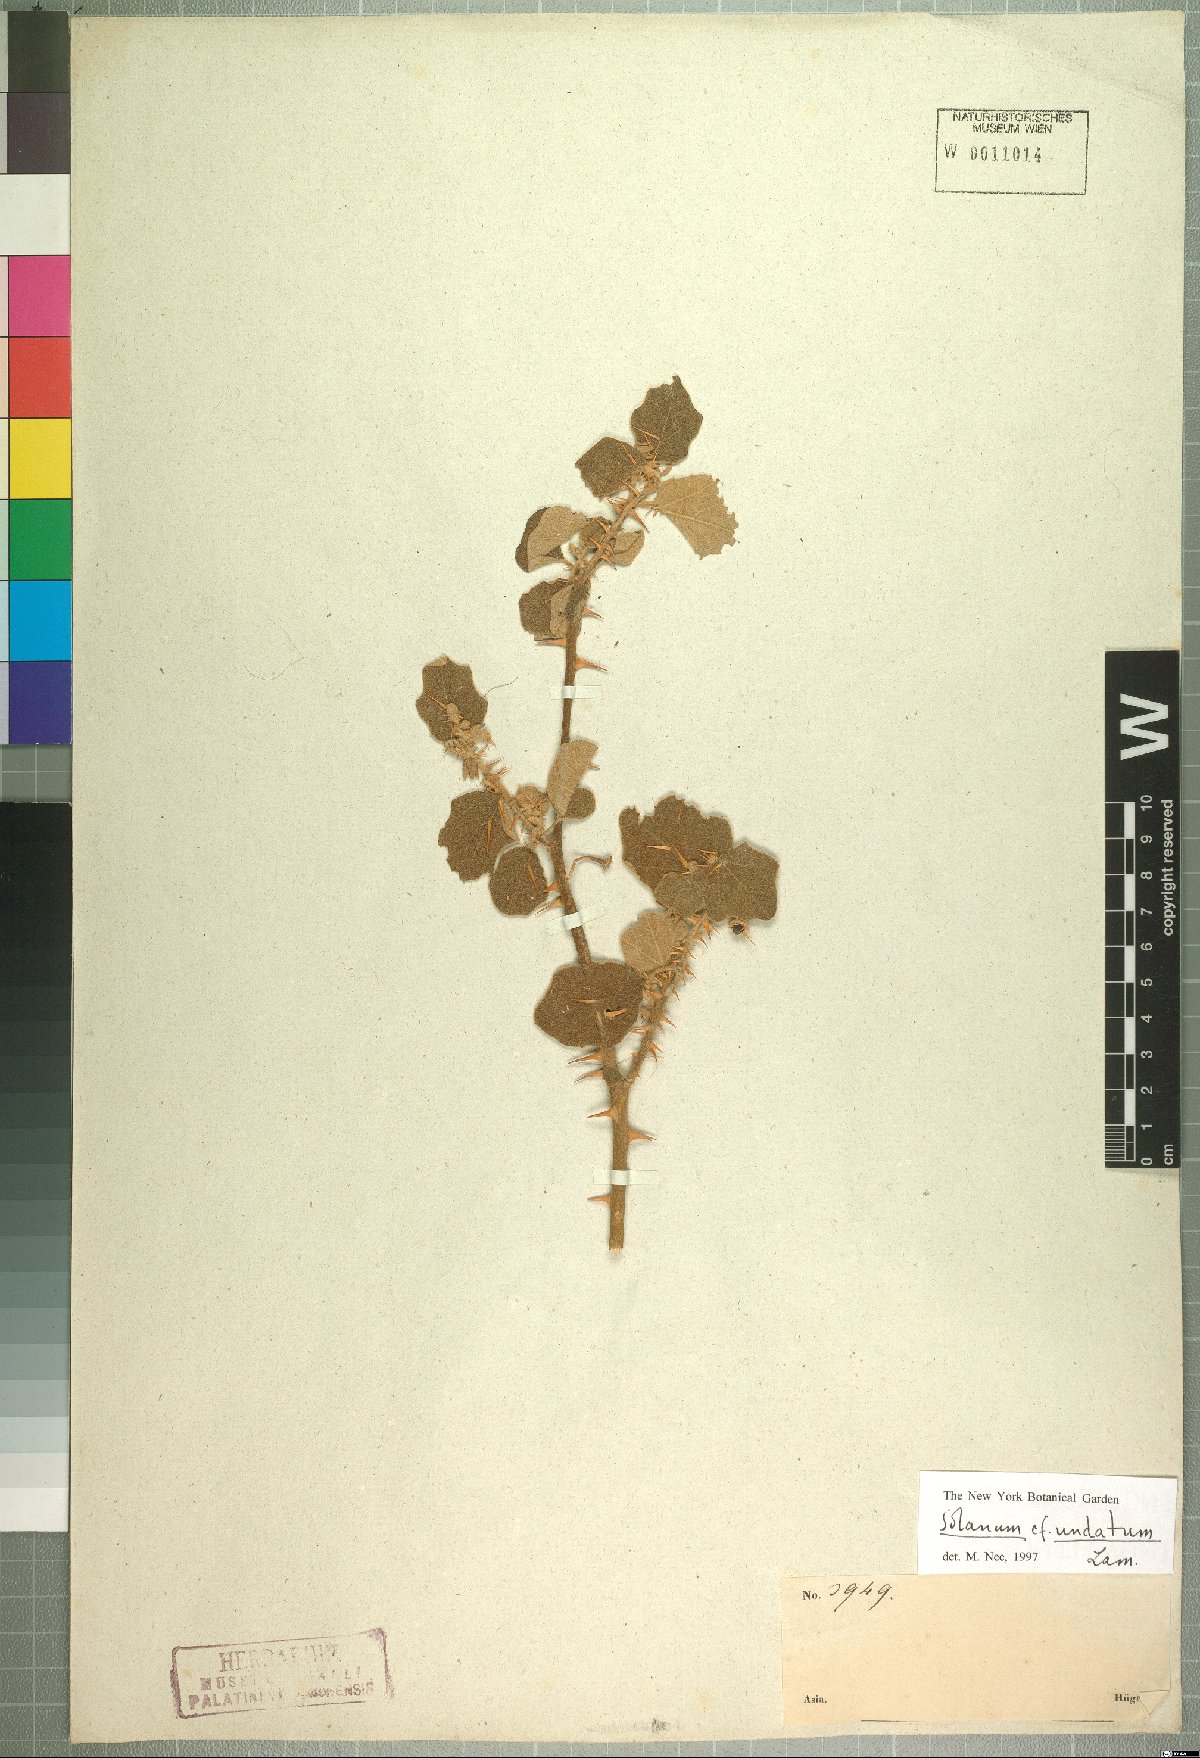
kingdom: Plantae
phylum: Tracheophyta
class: Magnoliopsida
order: Solanales
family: Solanaceae
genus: Solanum
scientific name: Solanum insanum
